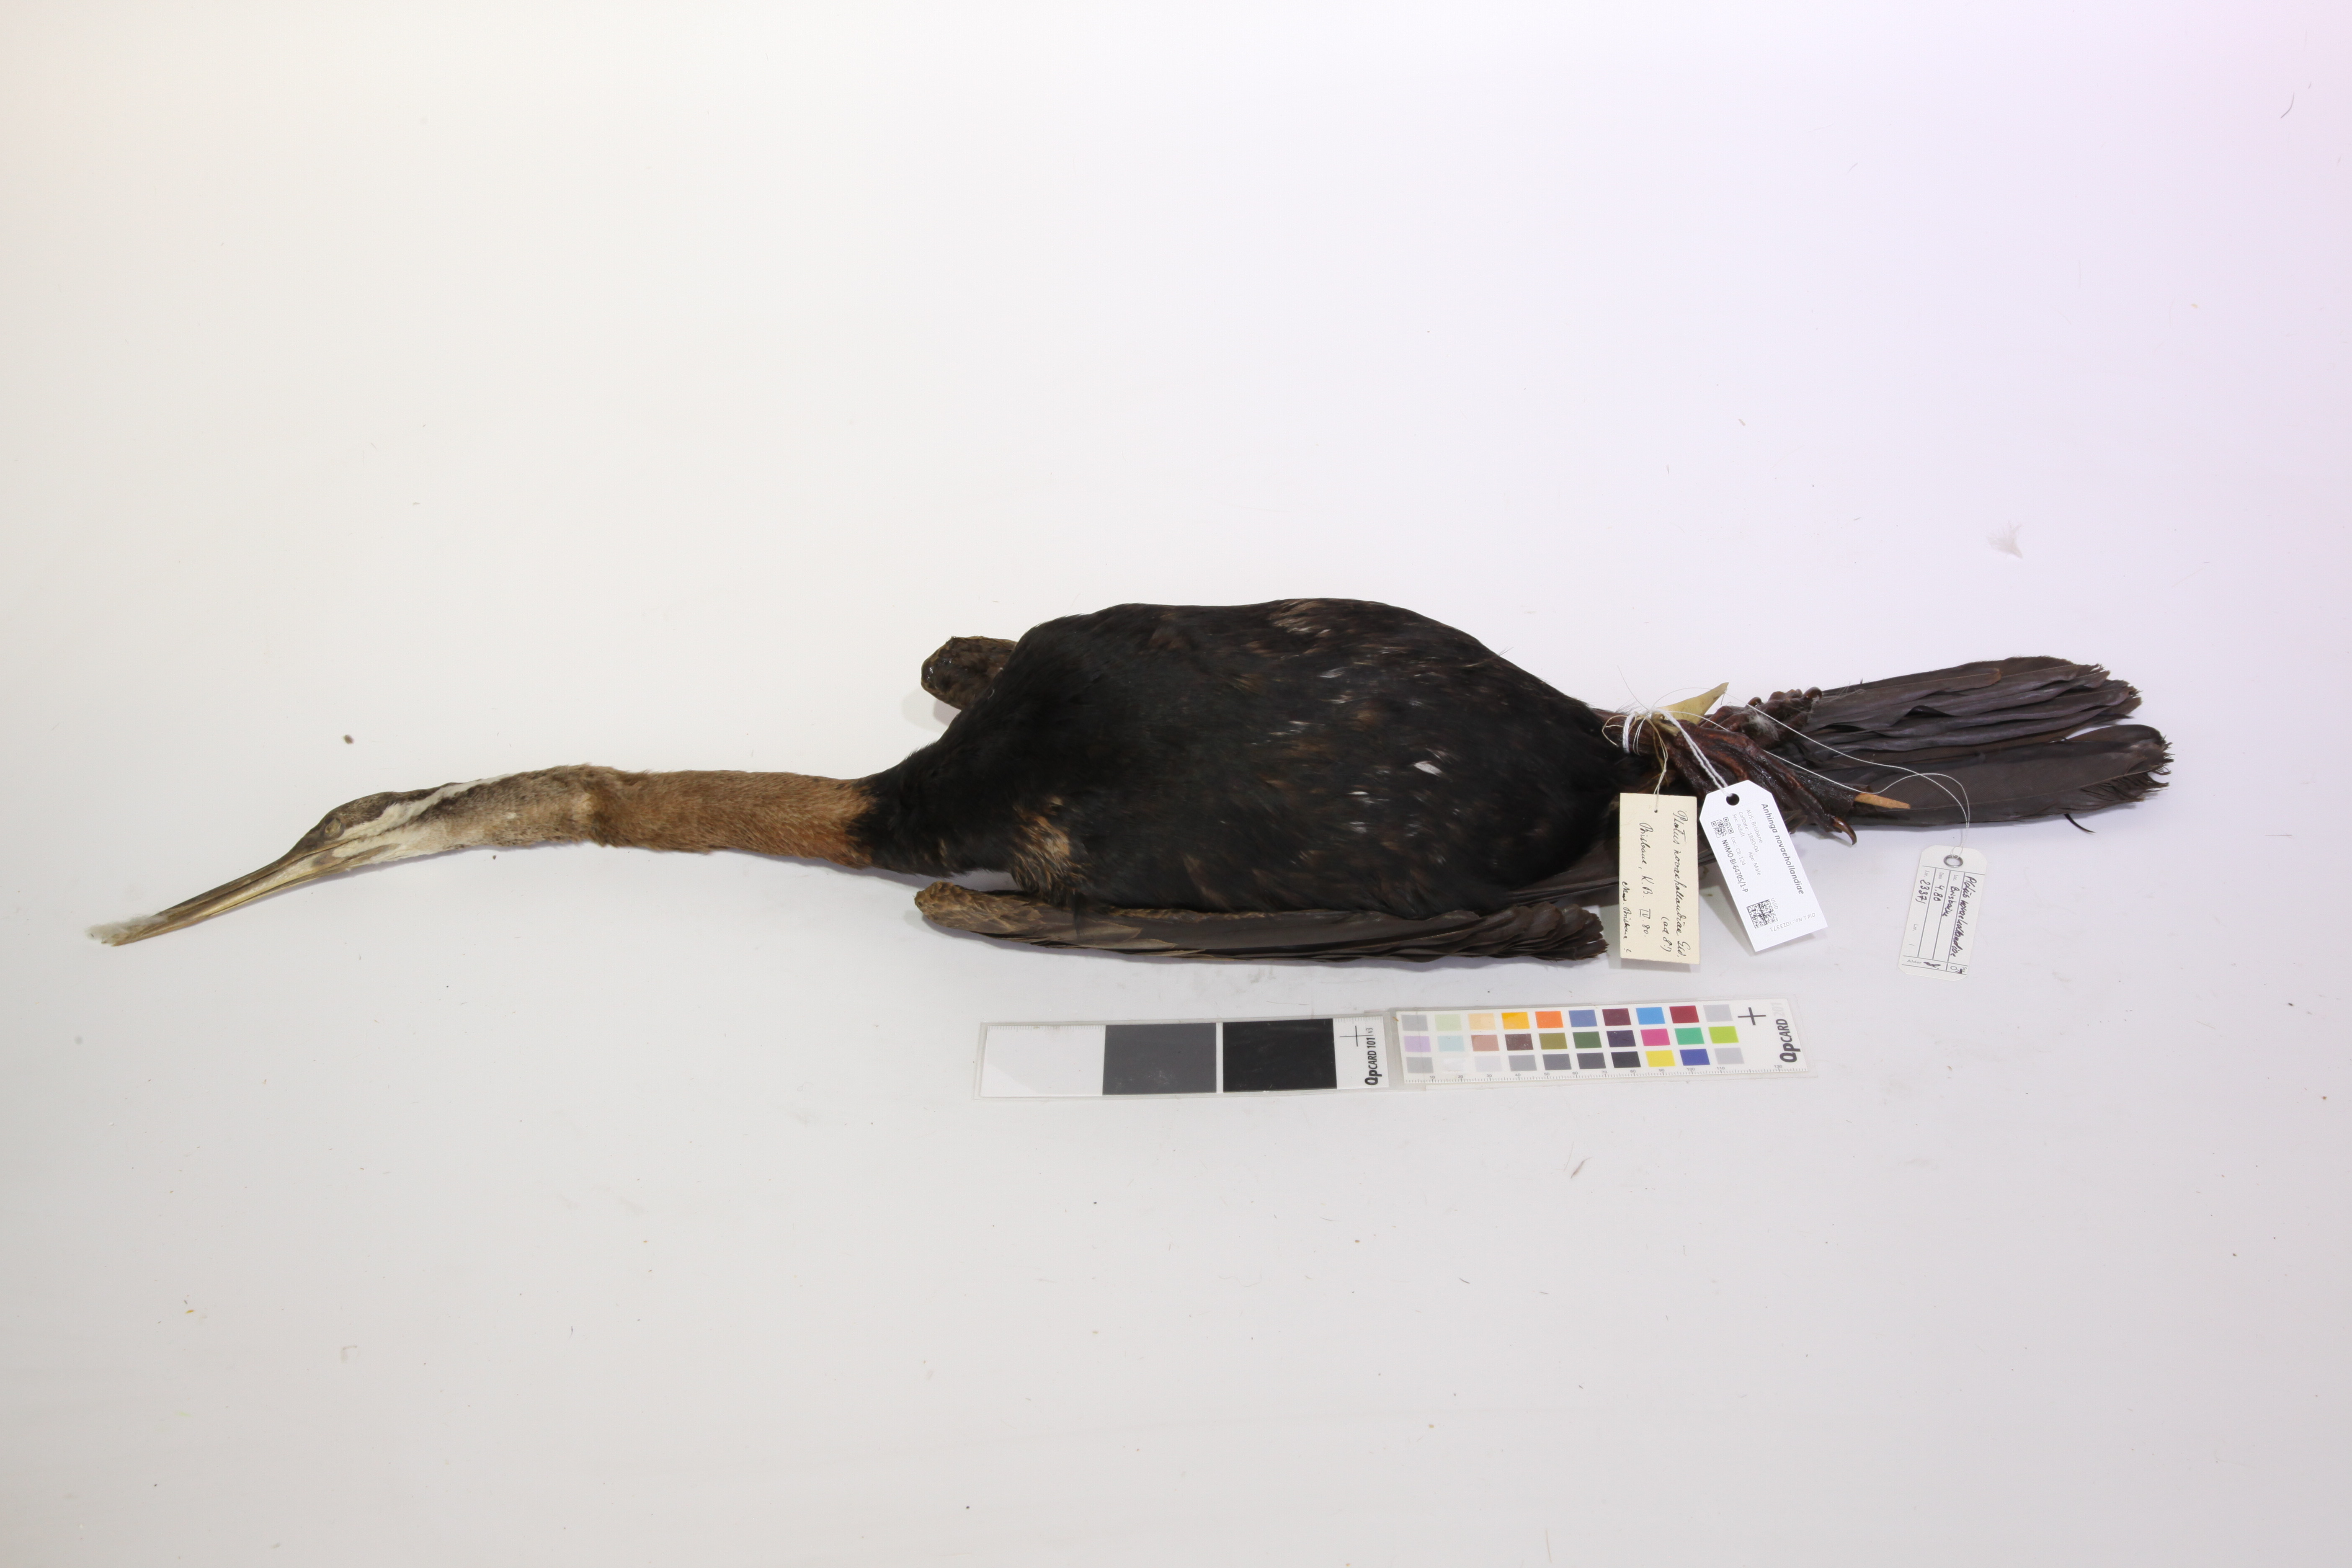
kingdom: Animalia
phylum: Chordata
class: Aves
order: Suliformes
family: Anhingidae
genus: Anhinga
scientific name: Anhinga novaehollandiae
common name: Australasian darter
